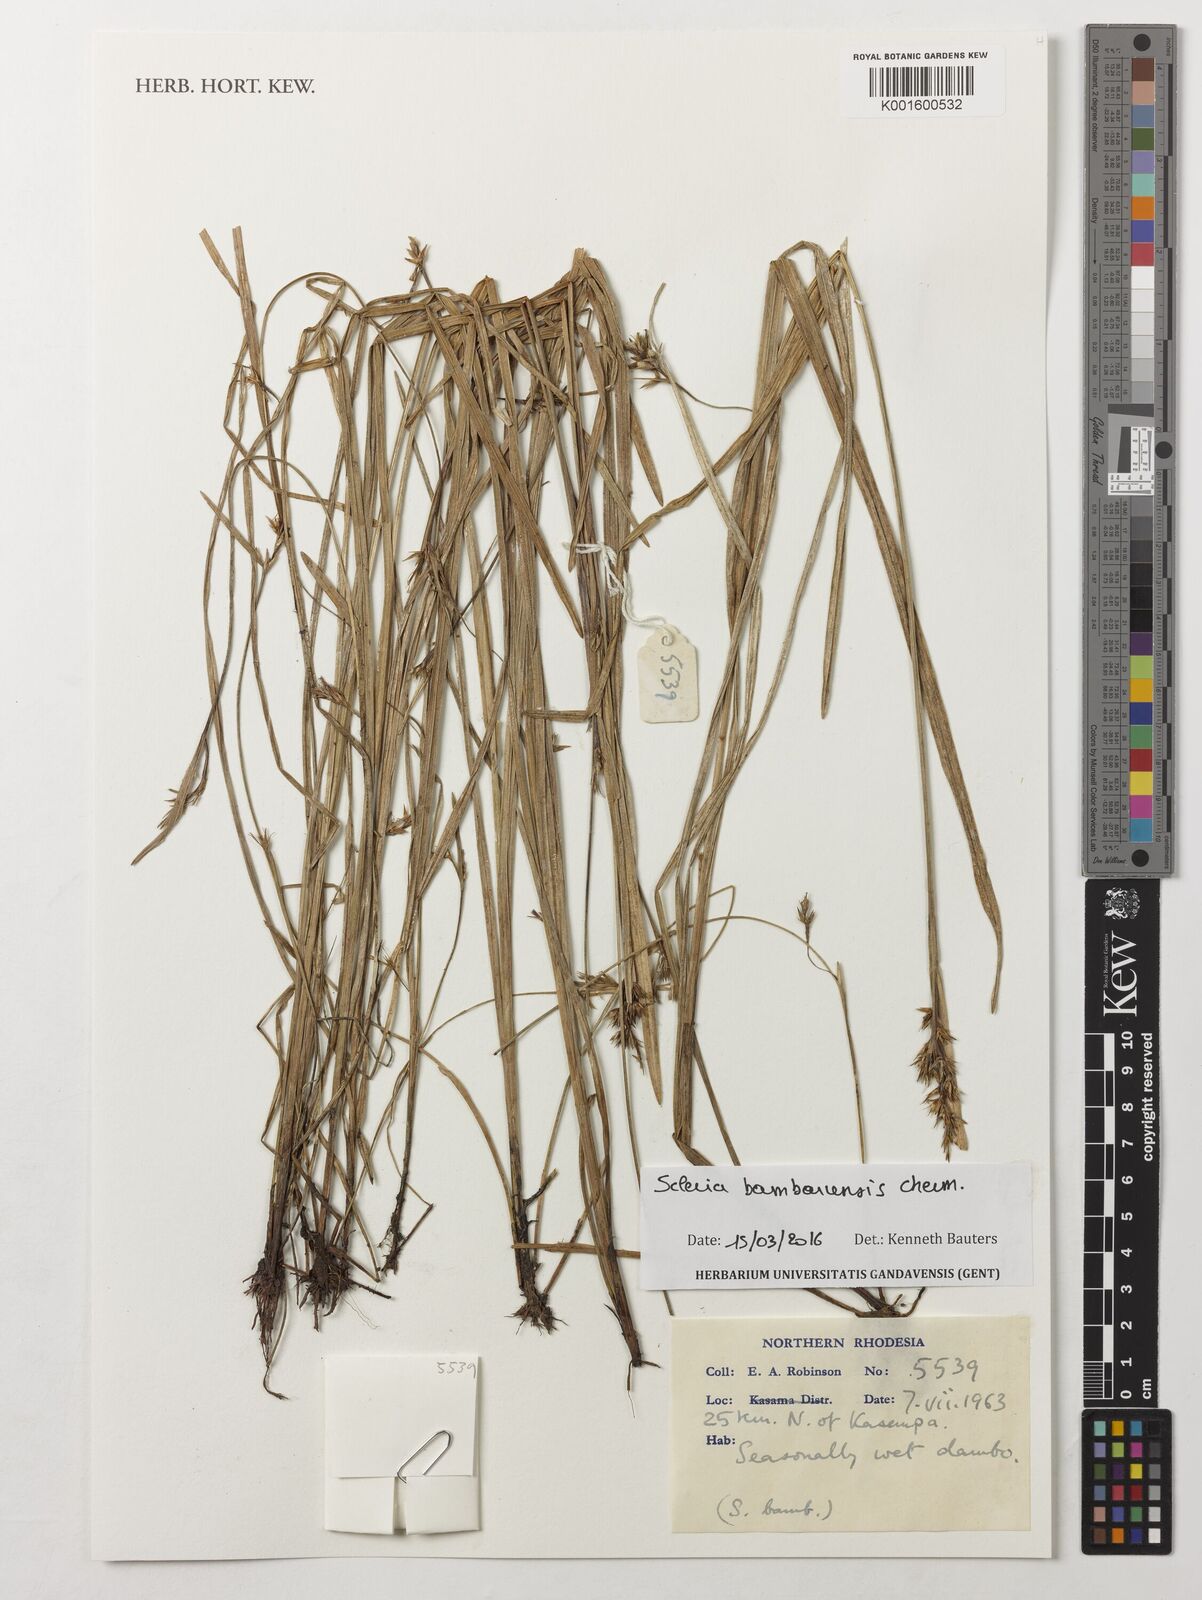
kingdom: Plantae
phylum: Tracheophyta
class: Liliopsida
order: Poales
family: Cyperaceae
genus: Scleria
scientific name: Scleria bambariensis
